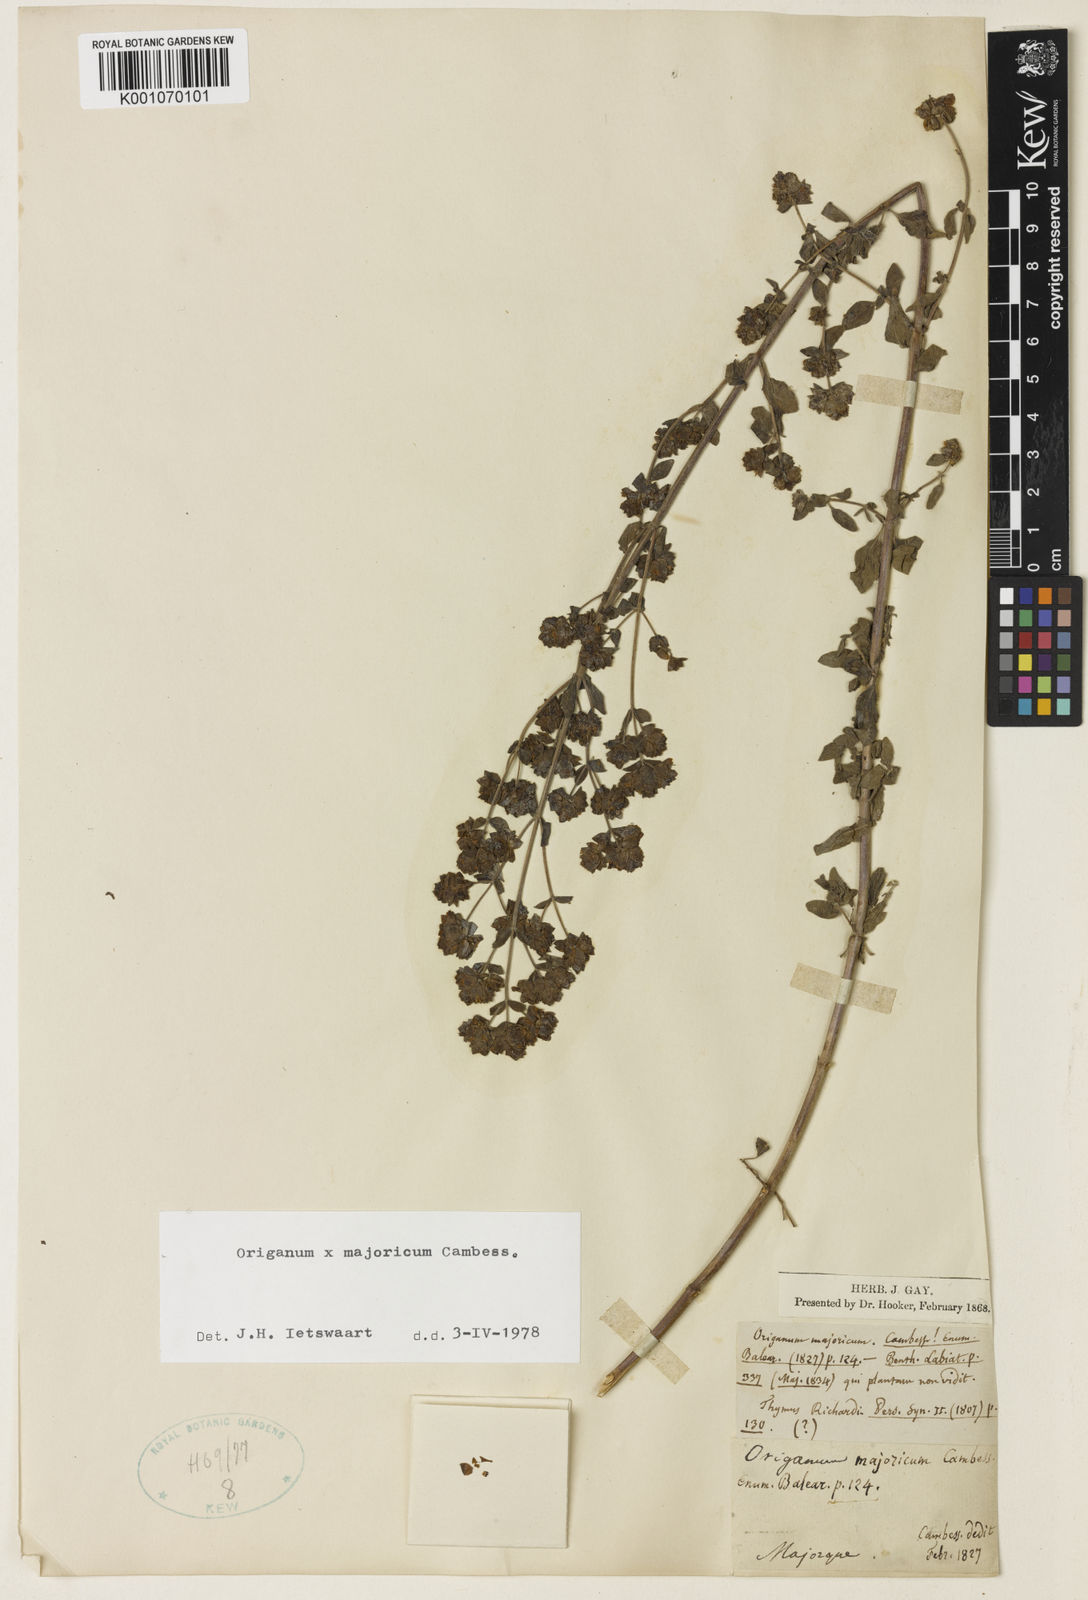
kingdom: Plantae
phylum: Tracheophyta
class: Magnoliopsida
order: Lamiales
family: Lamiaceae
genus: Origanum
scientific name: Origanum majorana
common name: Sweet marjoram
